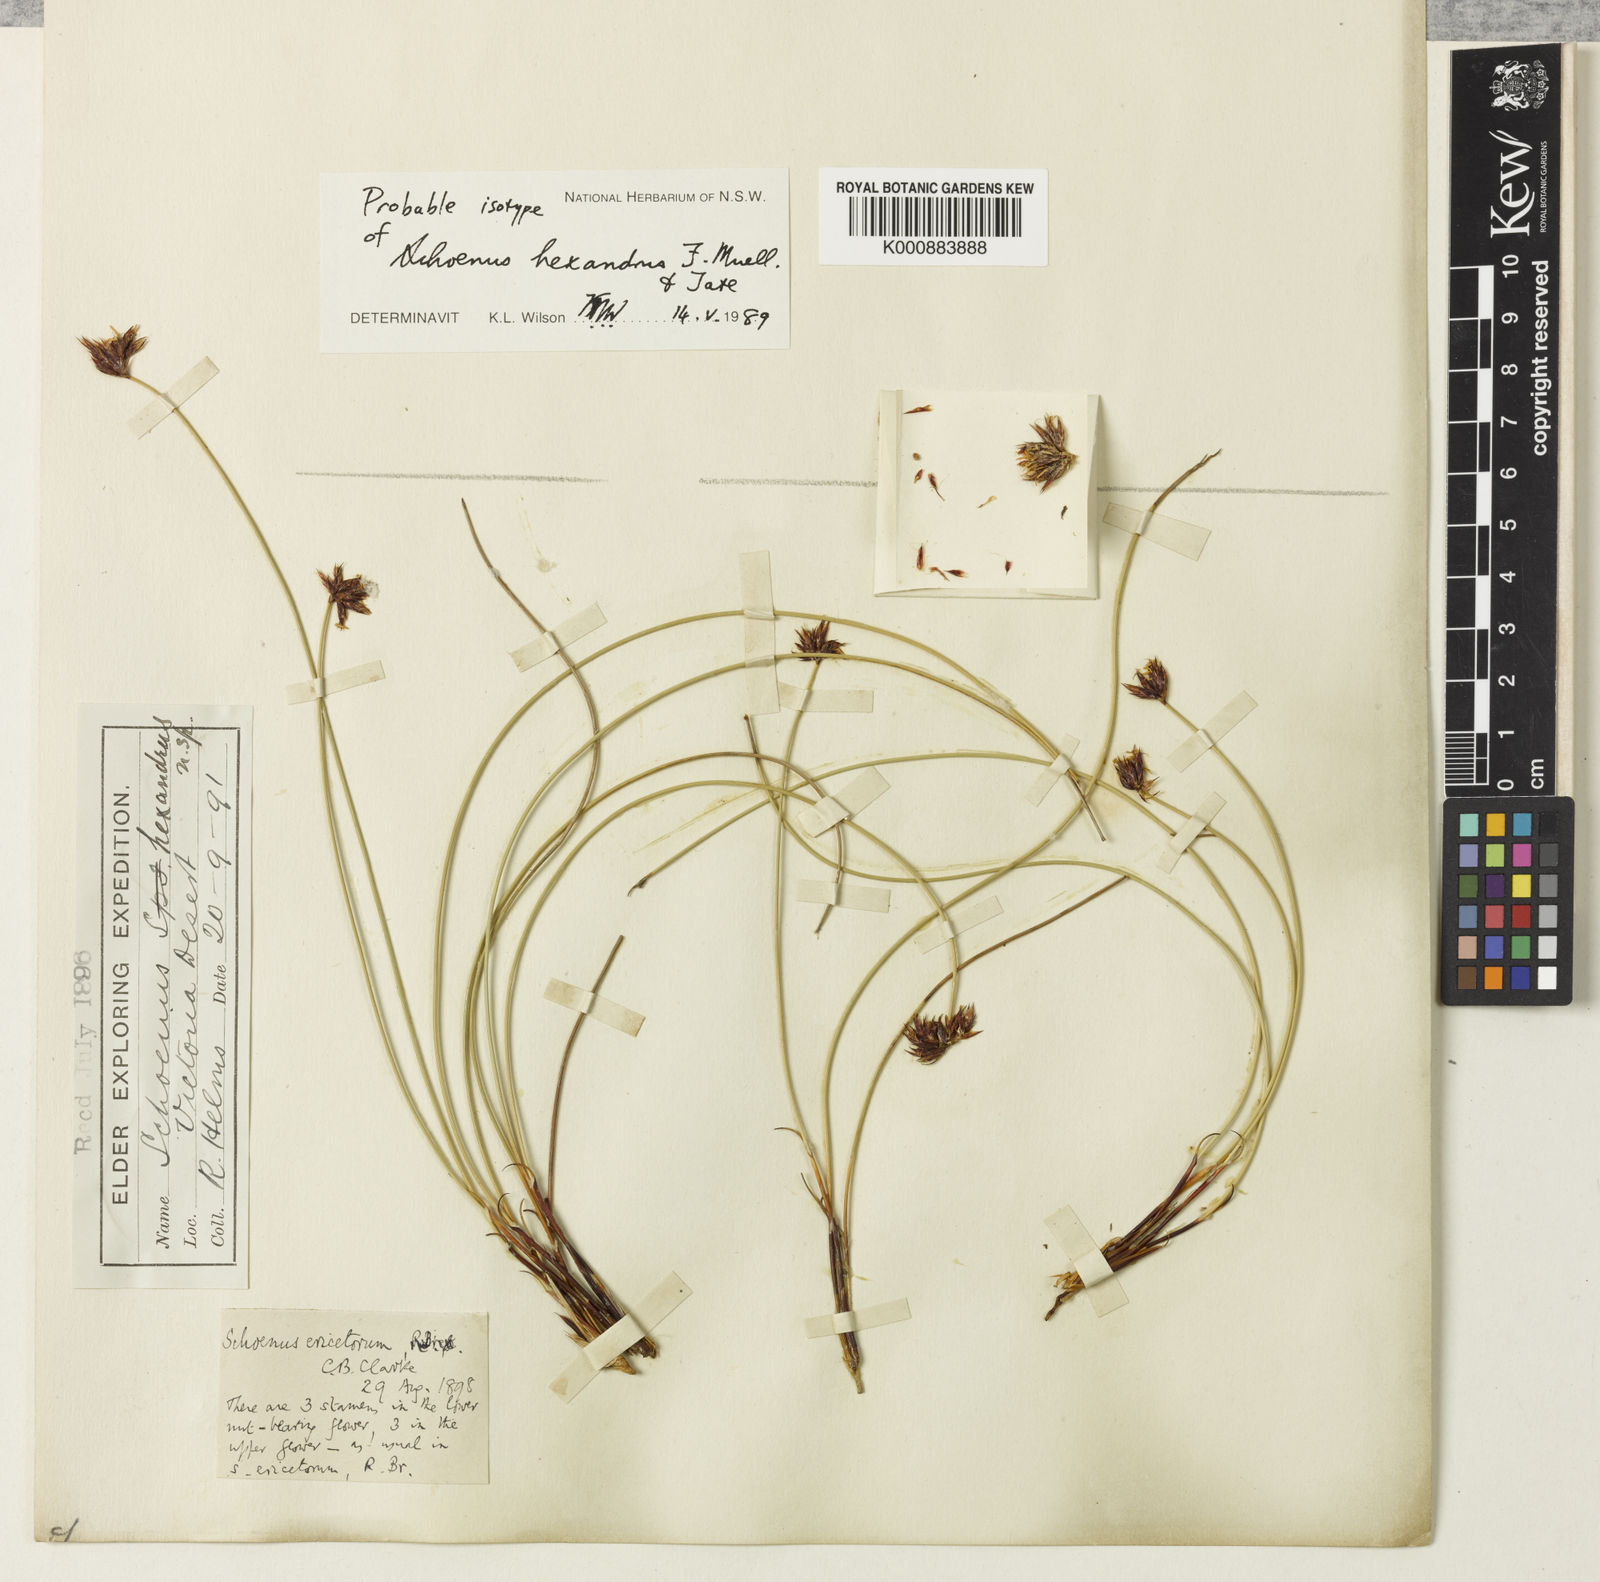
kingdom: Plantae
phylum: Tracheophyta
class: Liliopsida
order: Poales
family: Cyperaceae
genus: Schoenus
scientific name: Schoenus hexander
